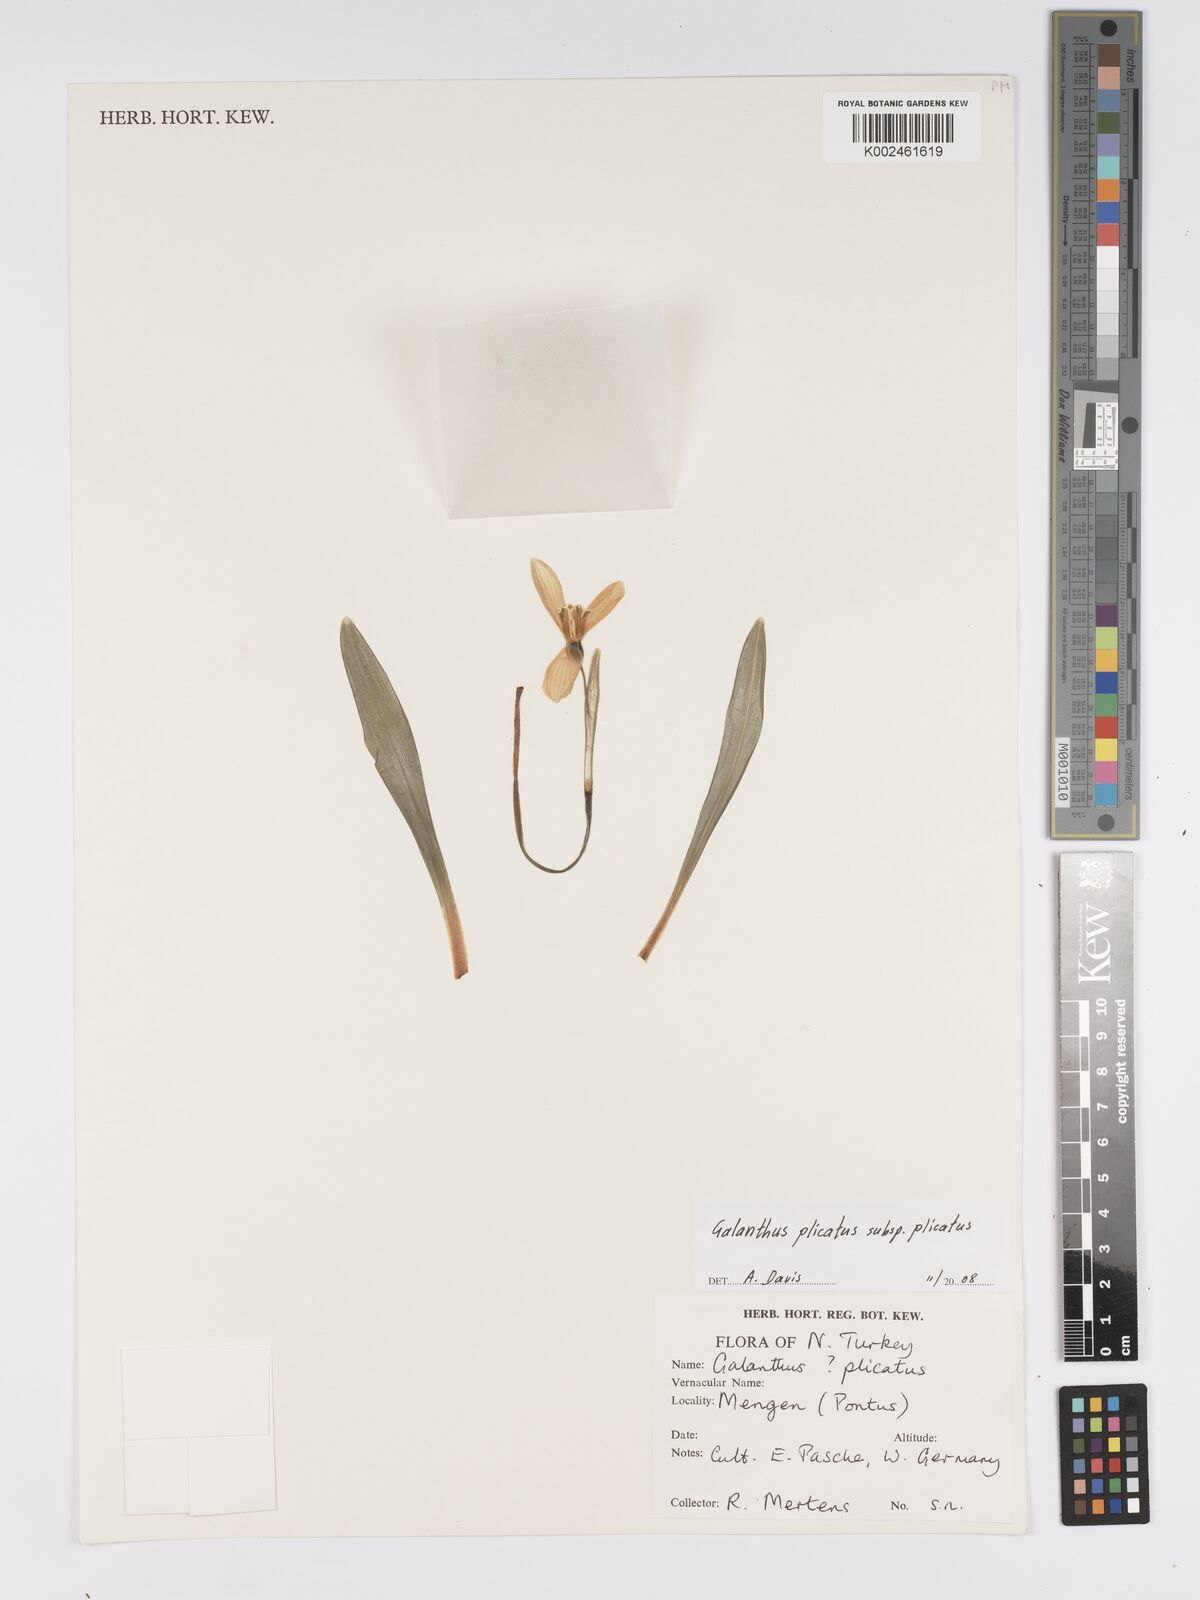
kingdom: Plantae
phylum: Tracheophyta
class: Liliopsida
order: Asparagales
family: Amaryllidaceae
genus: Galanthus
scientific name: Galanthus plicatus
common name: Pleated snowdrop
